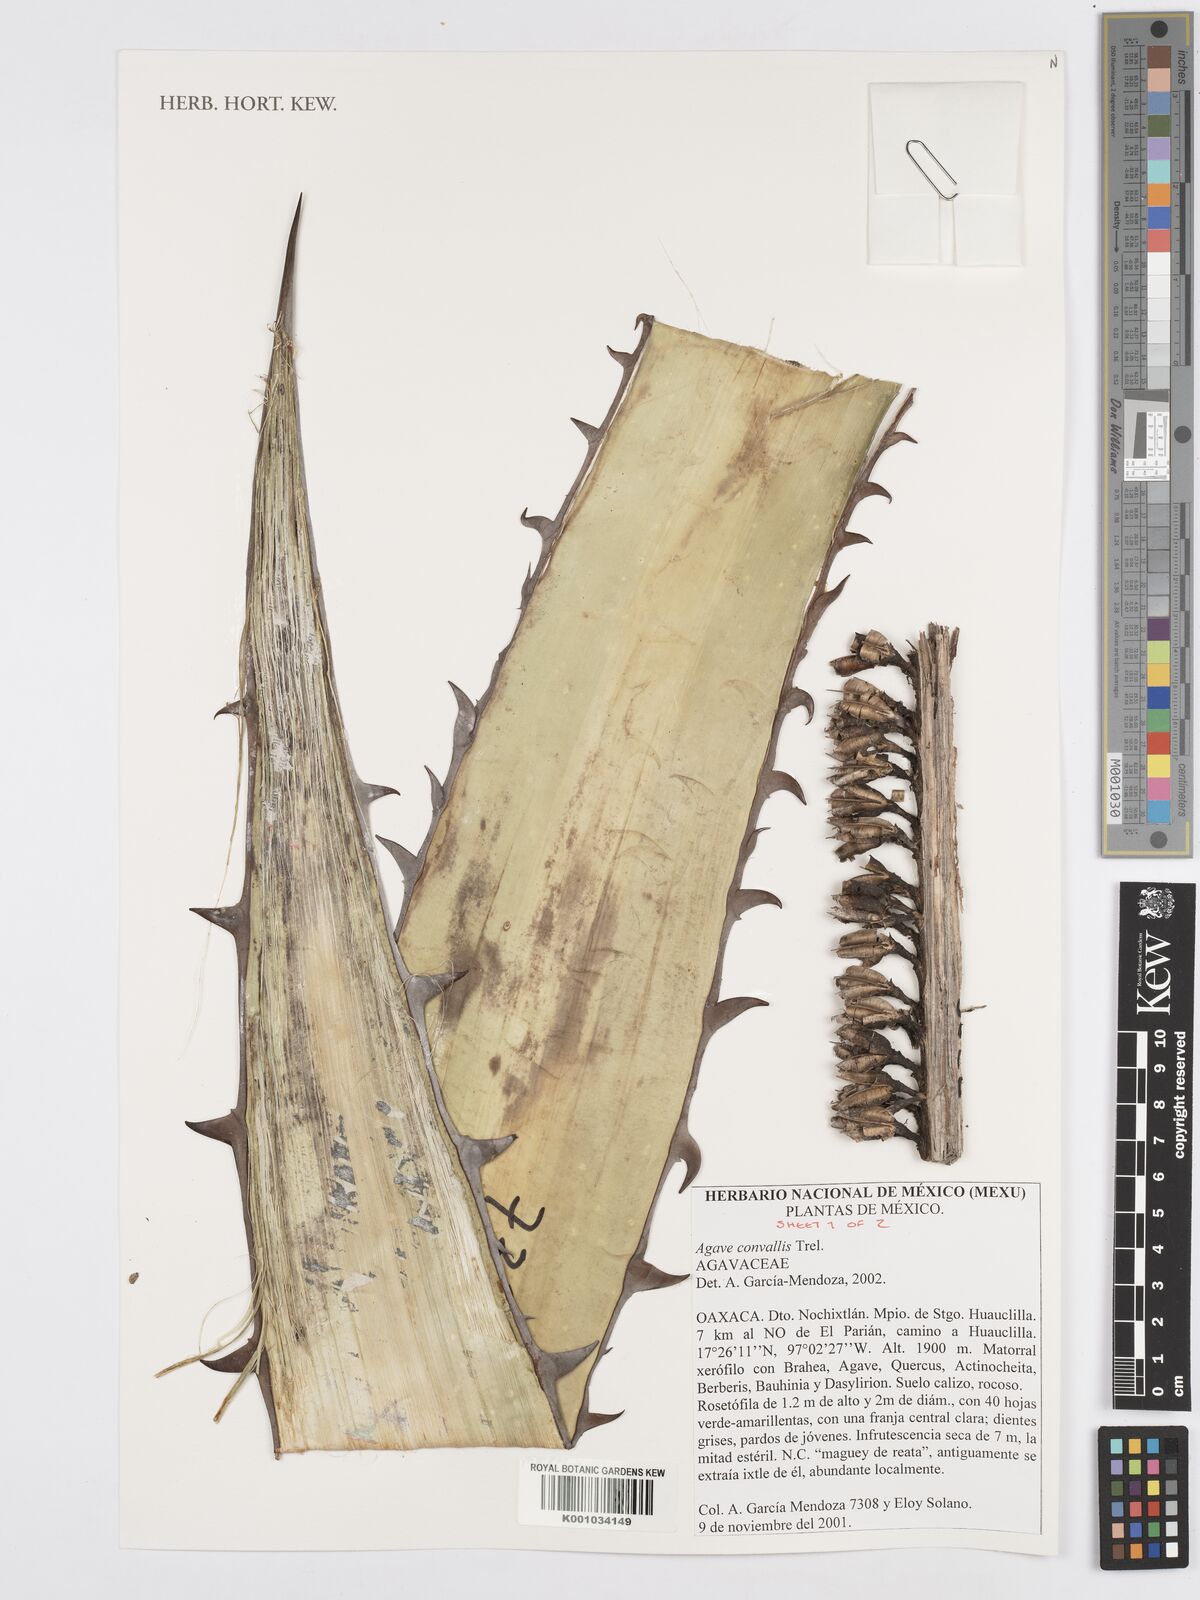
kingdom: Plantae
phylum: Tracheophyta
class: Liliopsida
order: Asparagales
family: Asparagaceae
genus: Agave
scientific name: Agave convallis
